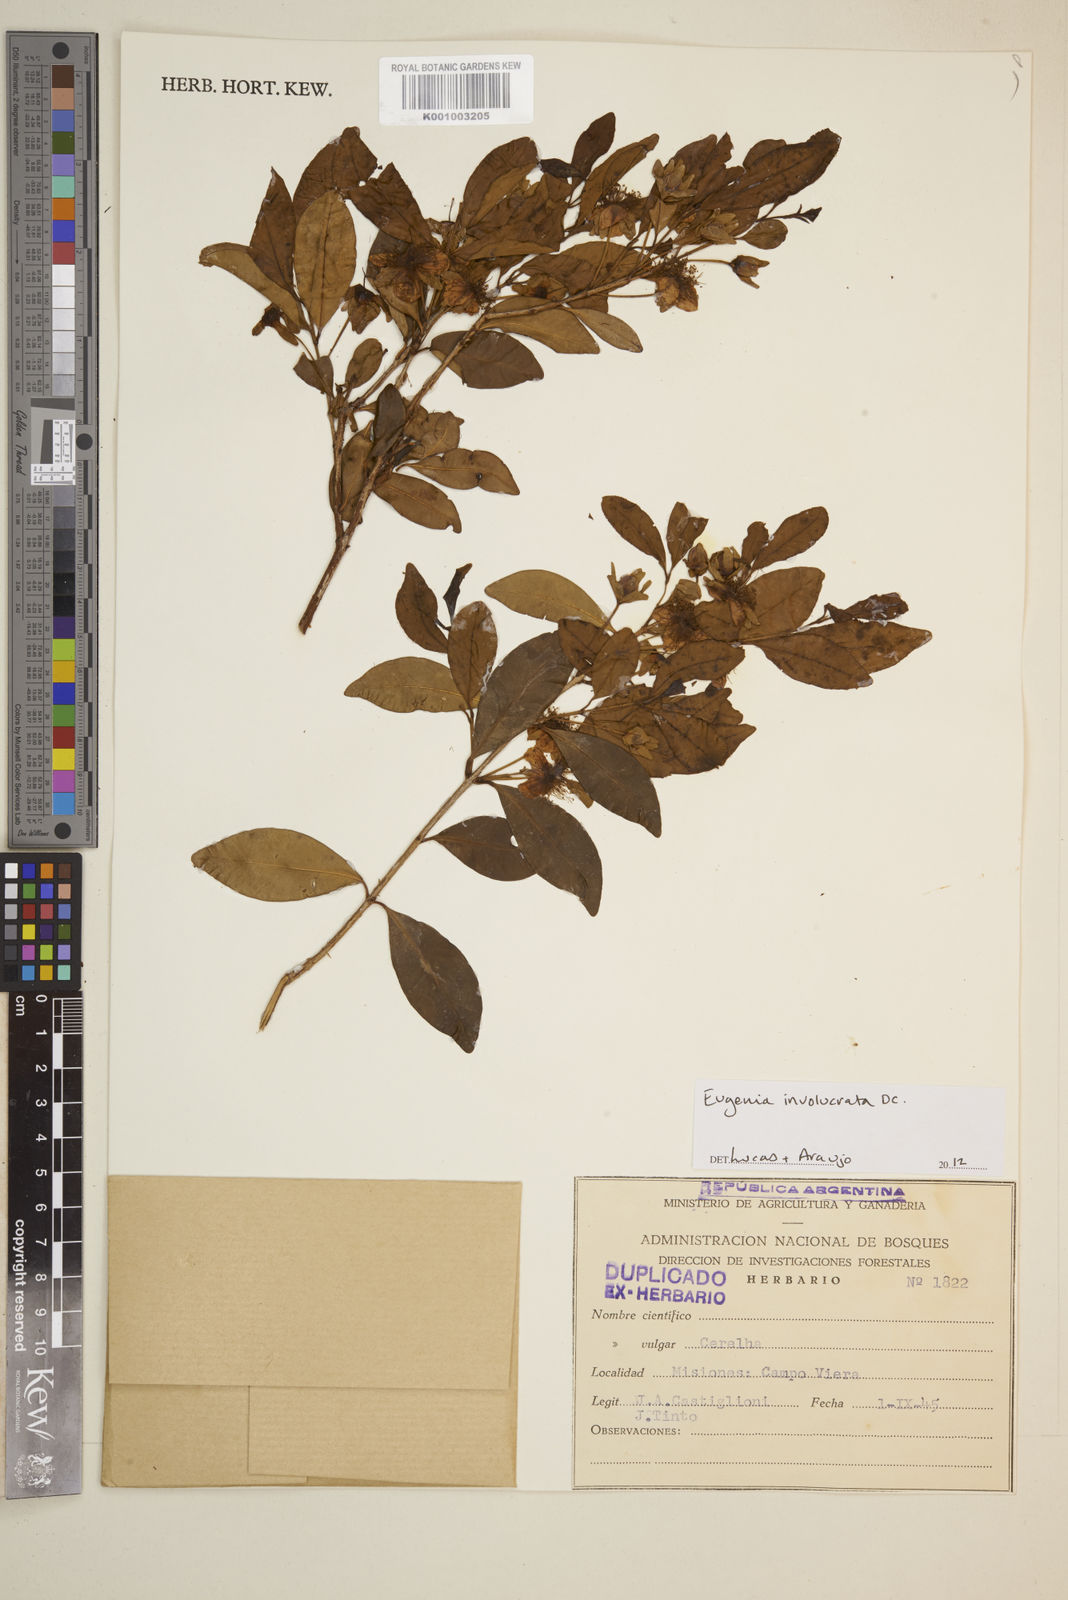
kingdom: Plantae
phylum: Tracheophyta
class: Magnoliopsida
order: Myrtales
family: Myrtaceae
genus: Eugenia
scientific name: Eugenia involucrata
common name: Cherry-of-the-rio grande
